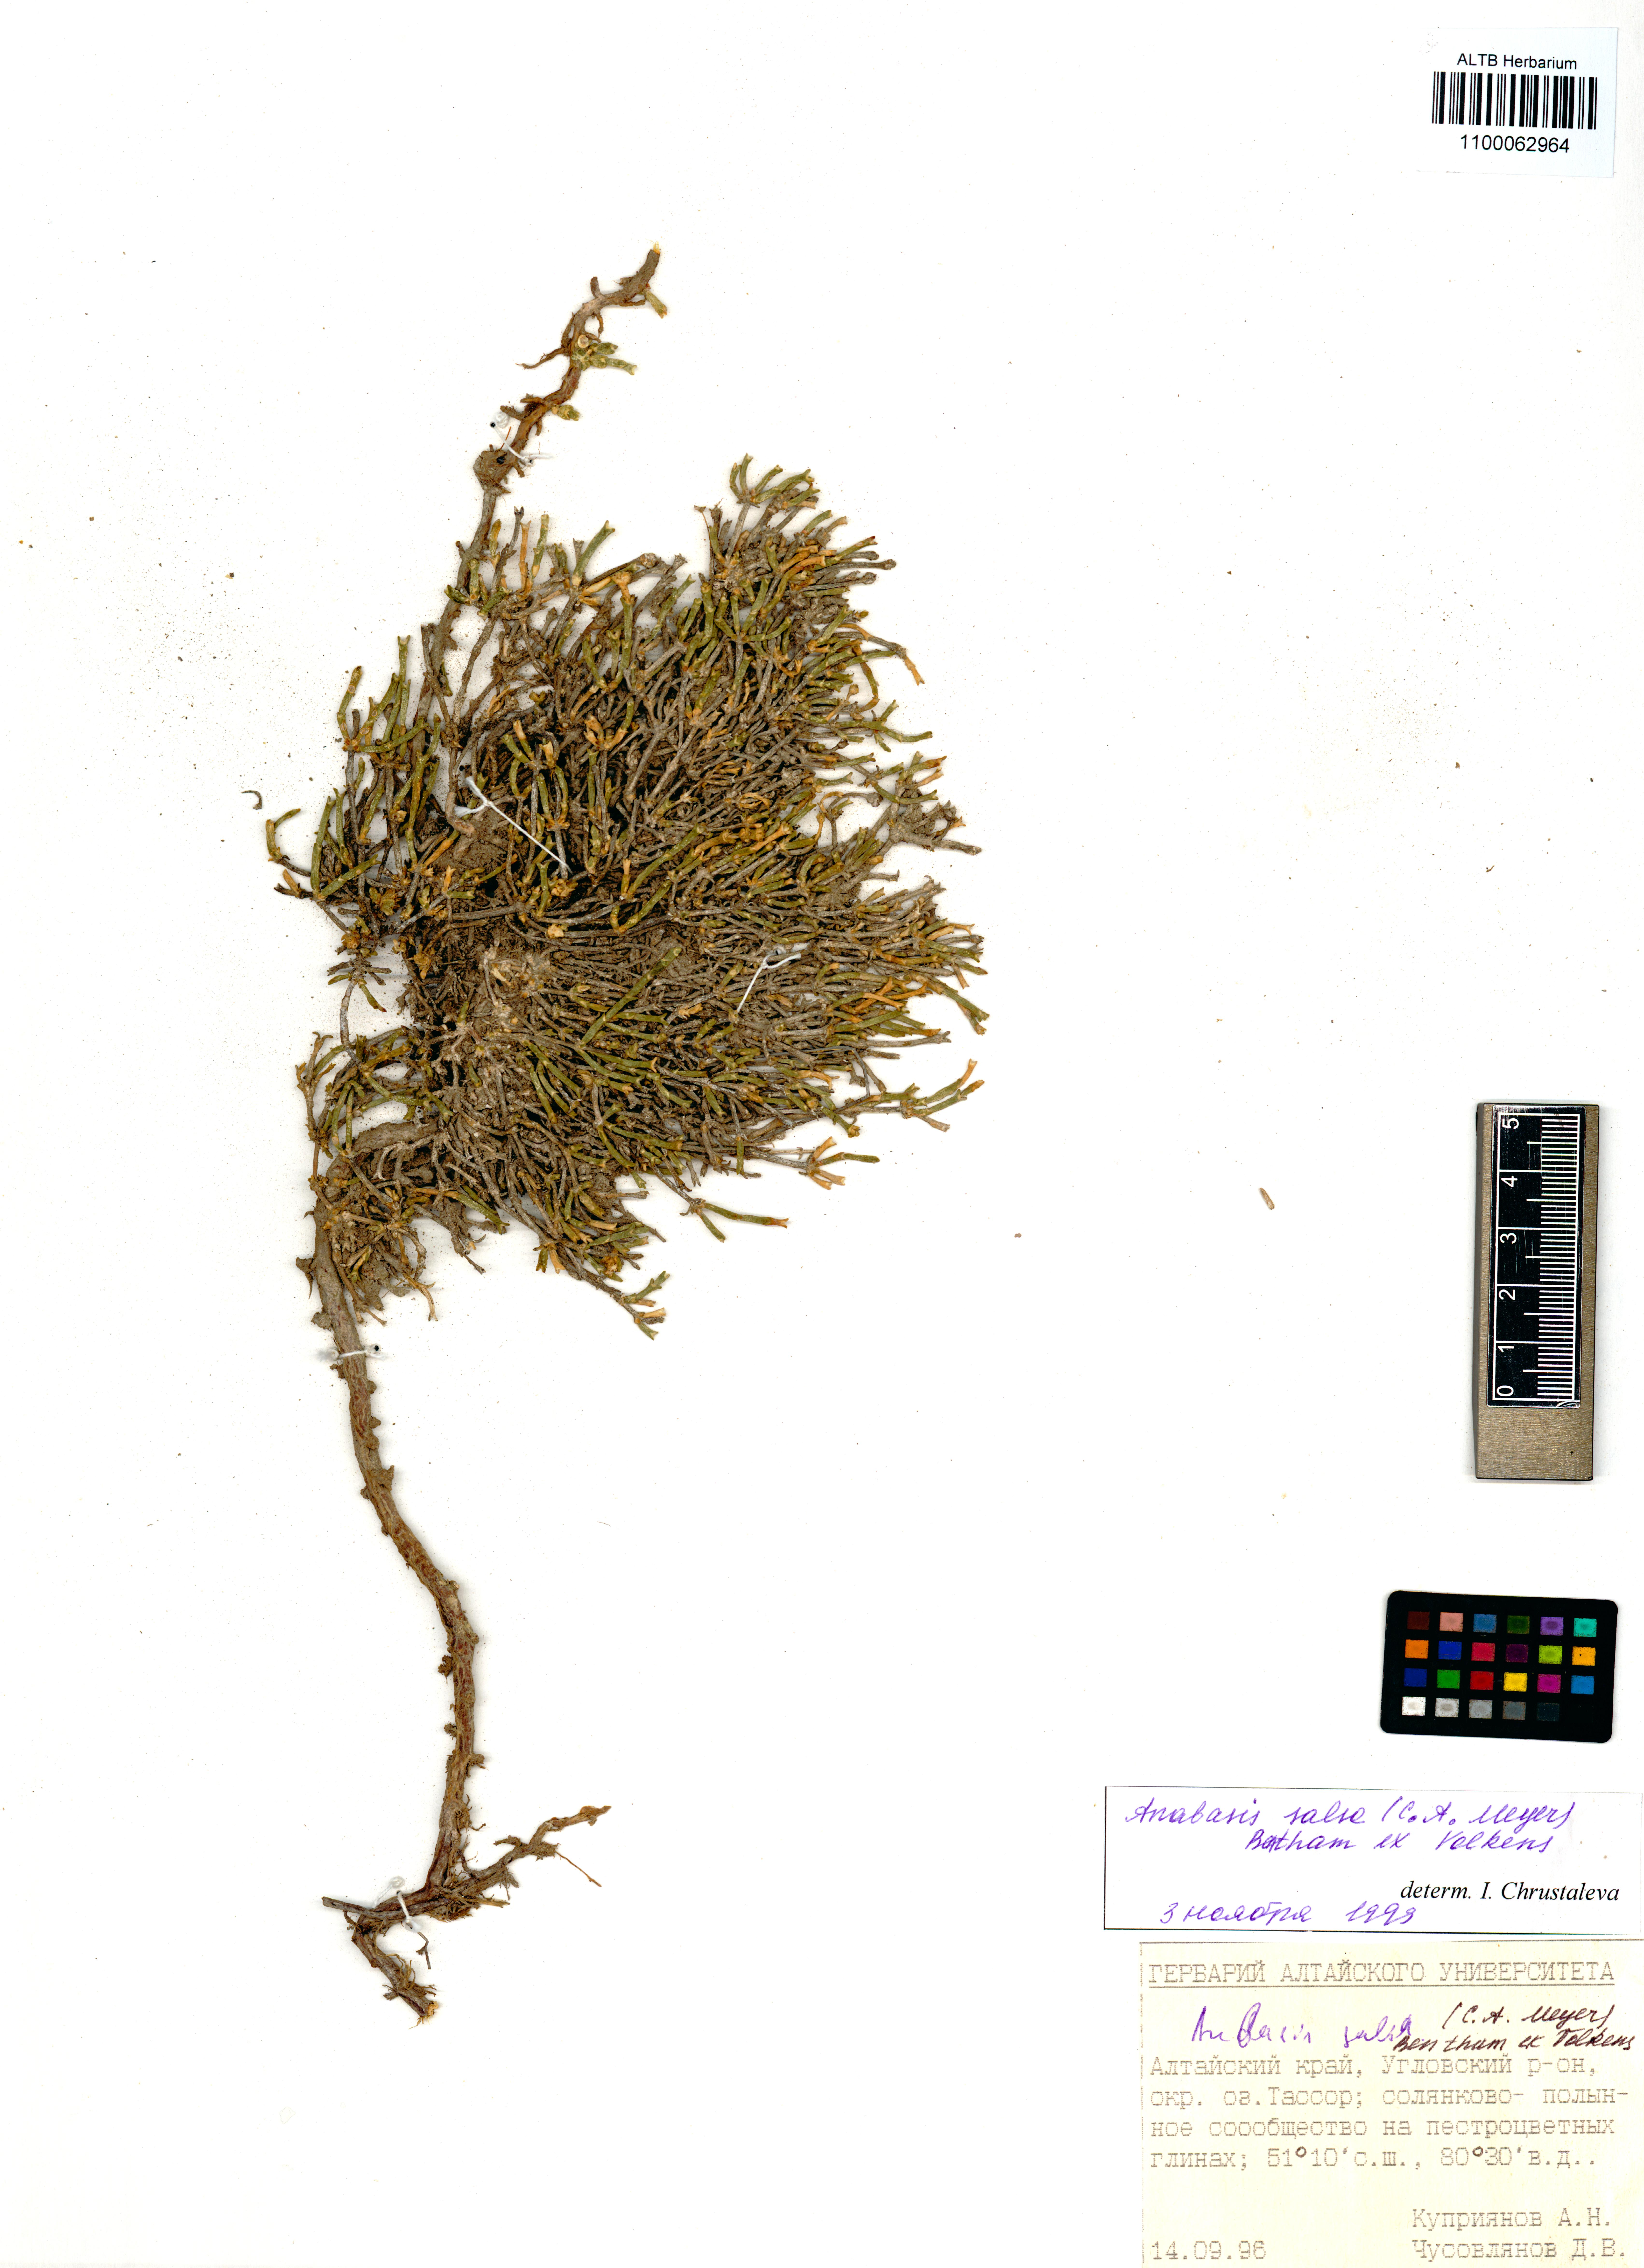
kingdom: Plantae
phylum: Tracheophyta
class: Magnoliopsida
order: Caryophyllales
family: Amaranthaceae
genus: Anabasis
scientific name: Anabasis salsa
